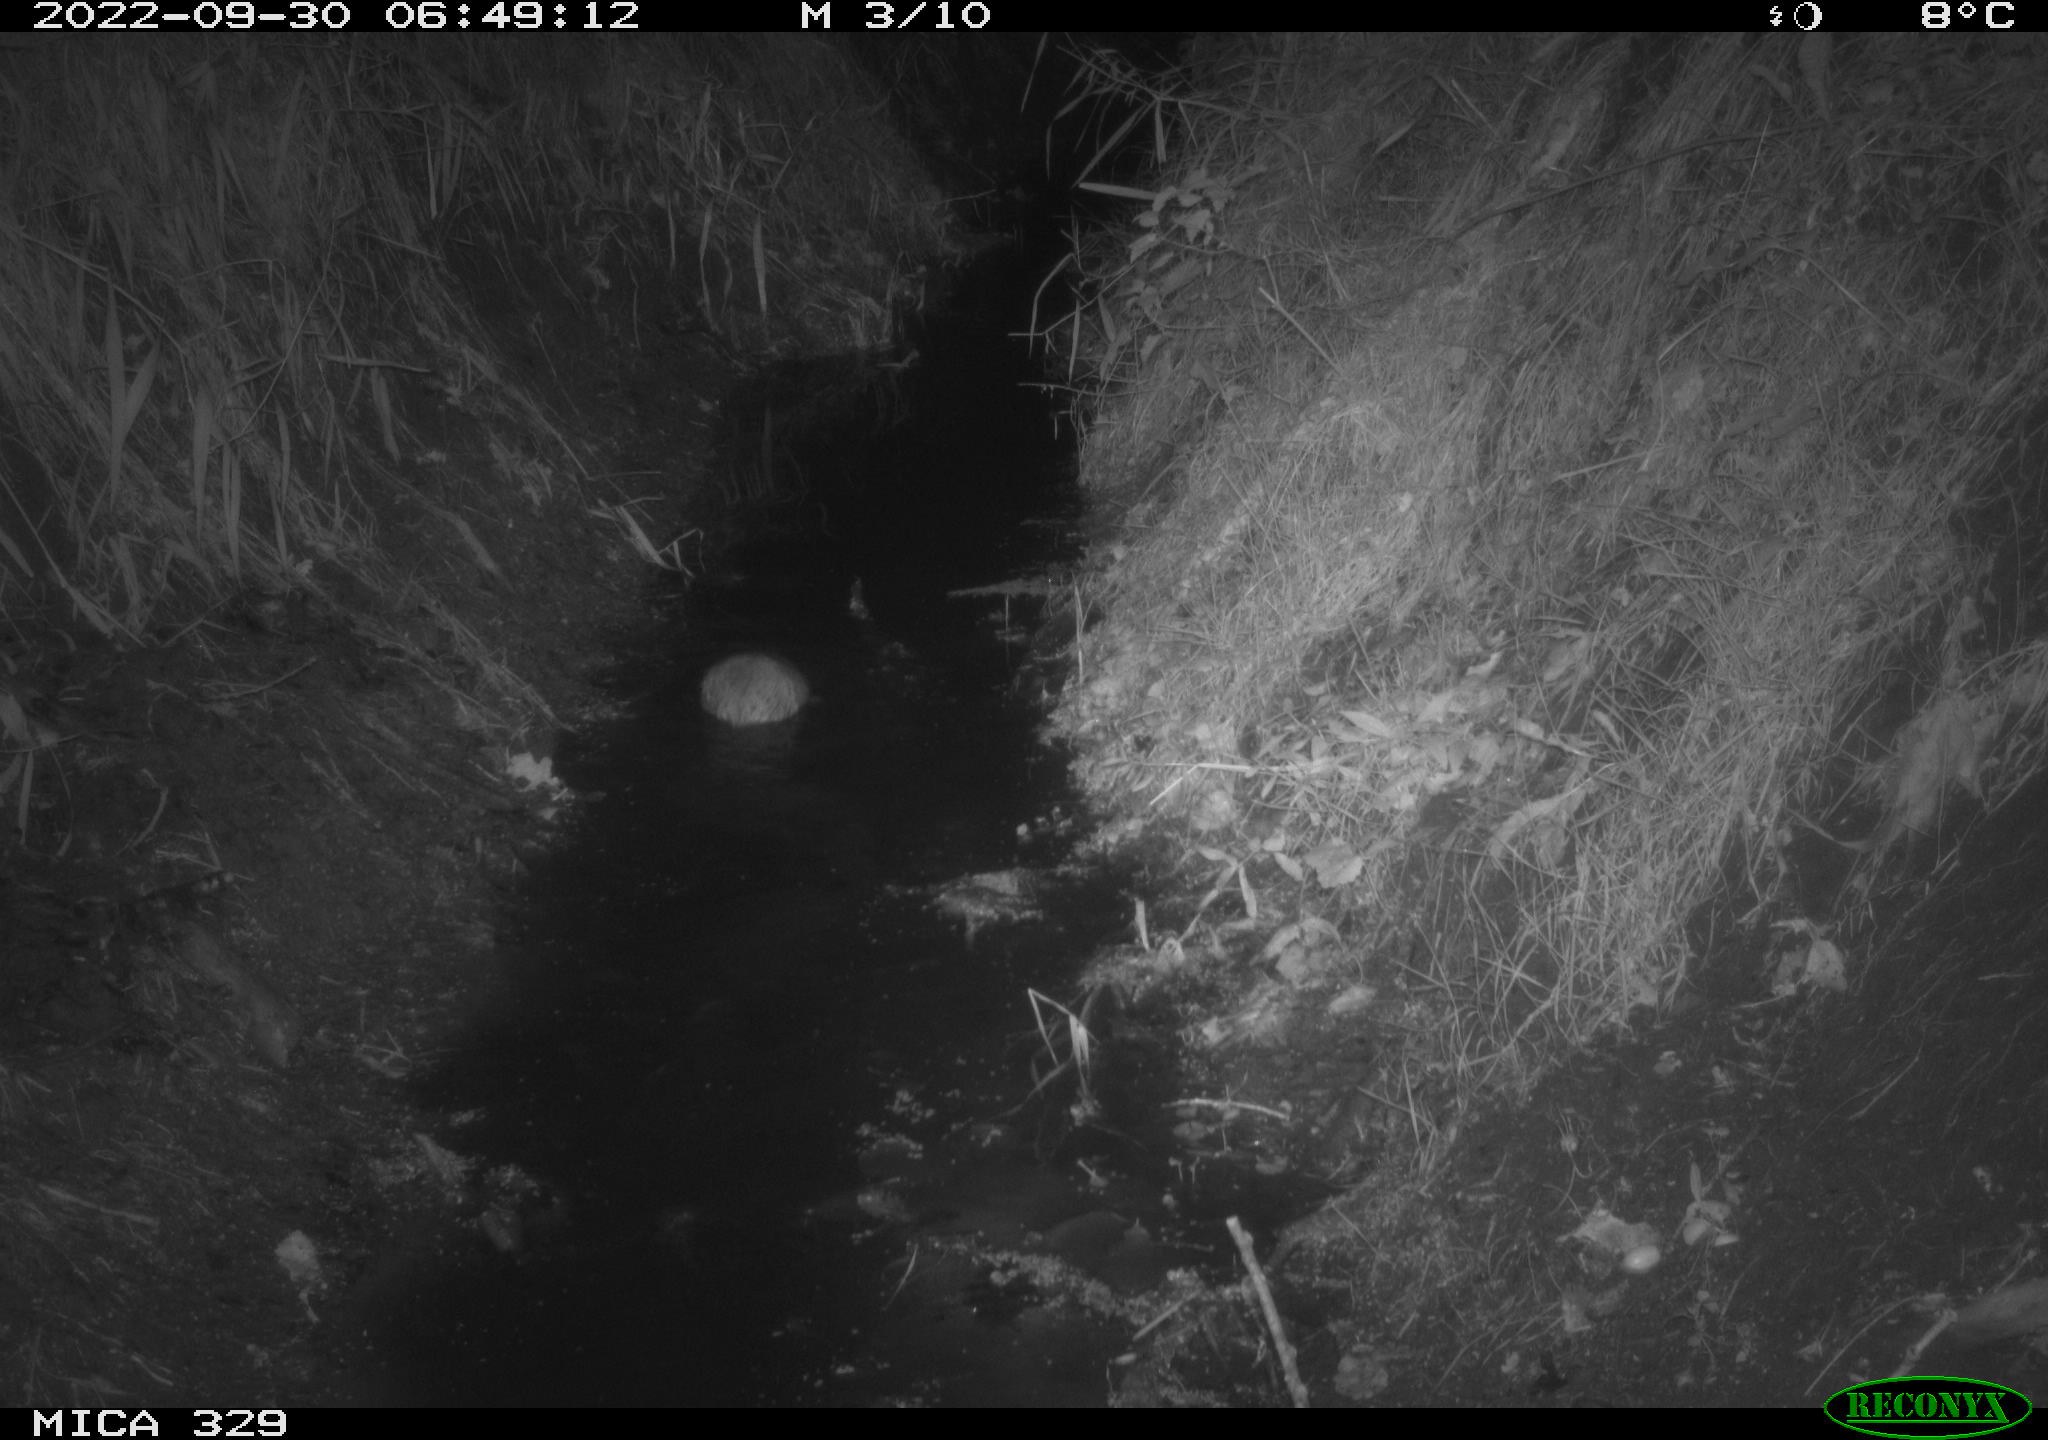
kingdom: Animalia
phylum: Chordata
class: Mammalia
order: Rodentia
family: Cricetidae
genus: Ondatra
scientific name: Ondatra zibethicus
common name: Muskrat
